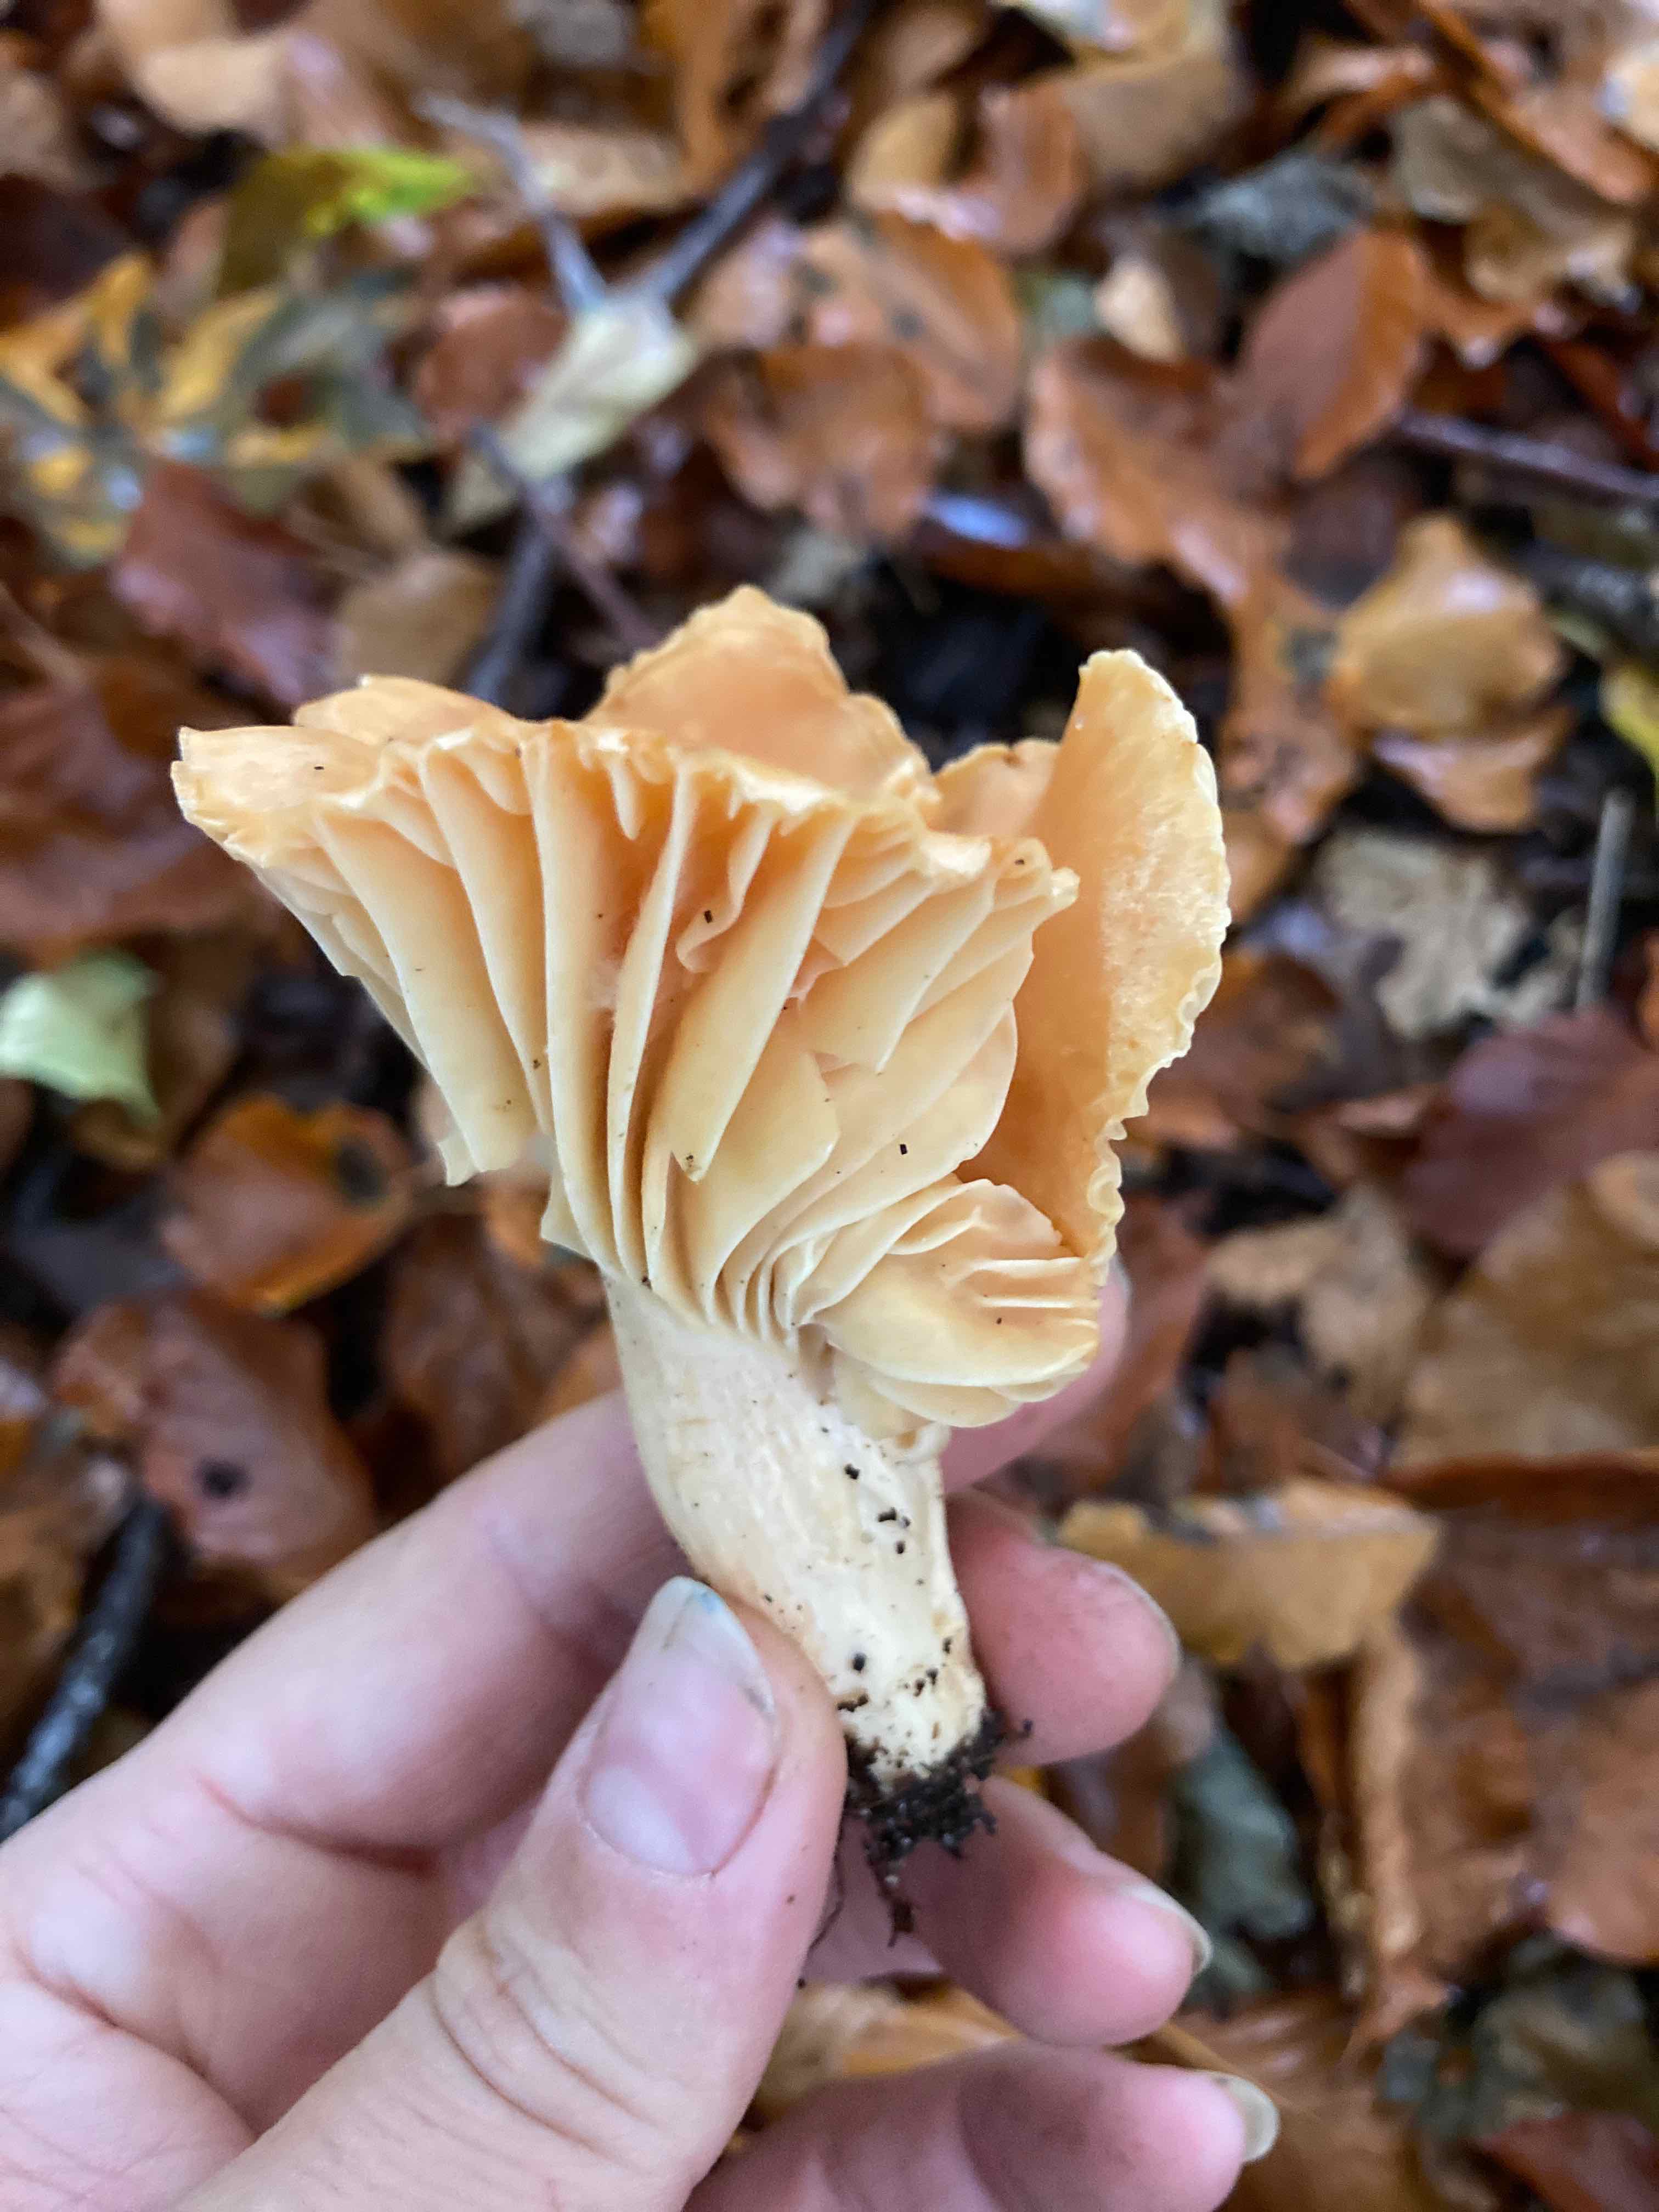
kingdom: Fungi
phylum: Basidiomycota
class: Agaricomycetes
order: Agaricales
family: Hygrophoraceae
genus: Cuphophyllus
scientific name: Cuphophyllus pratensis
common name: eng-vokshat
